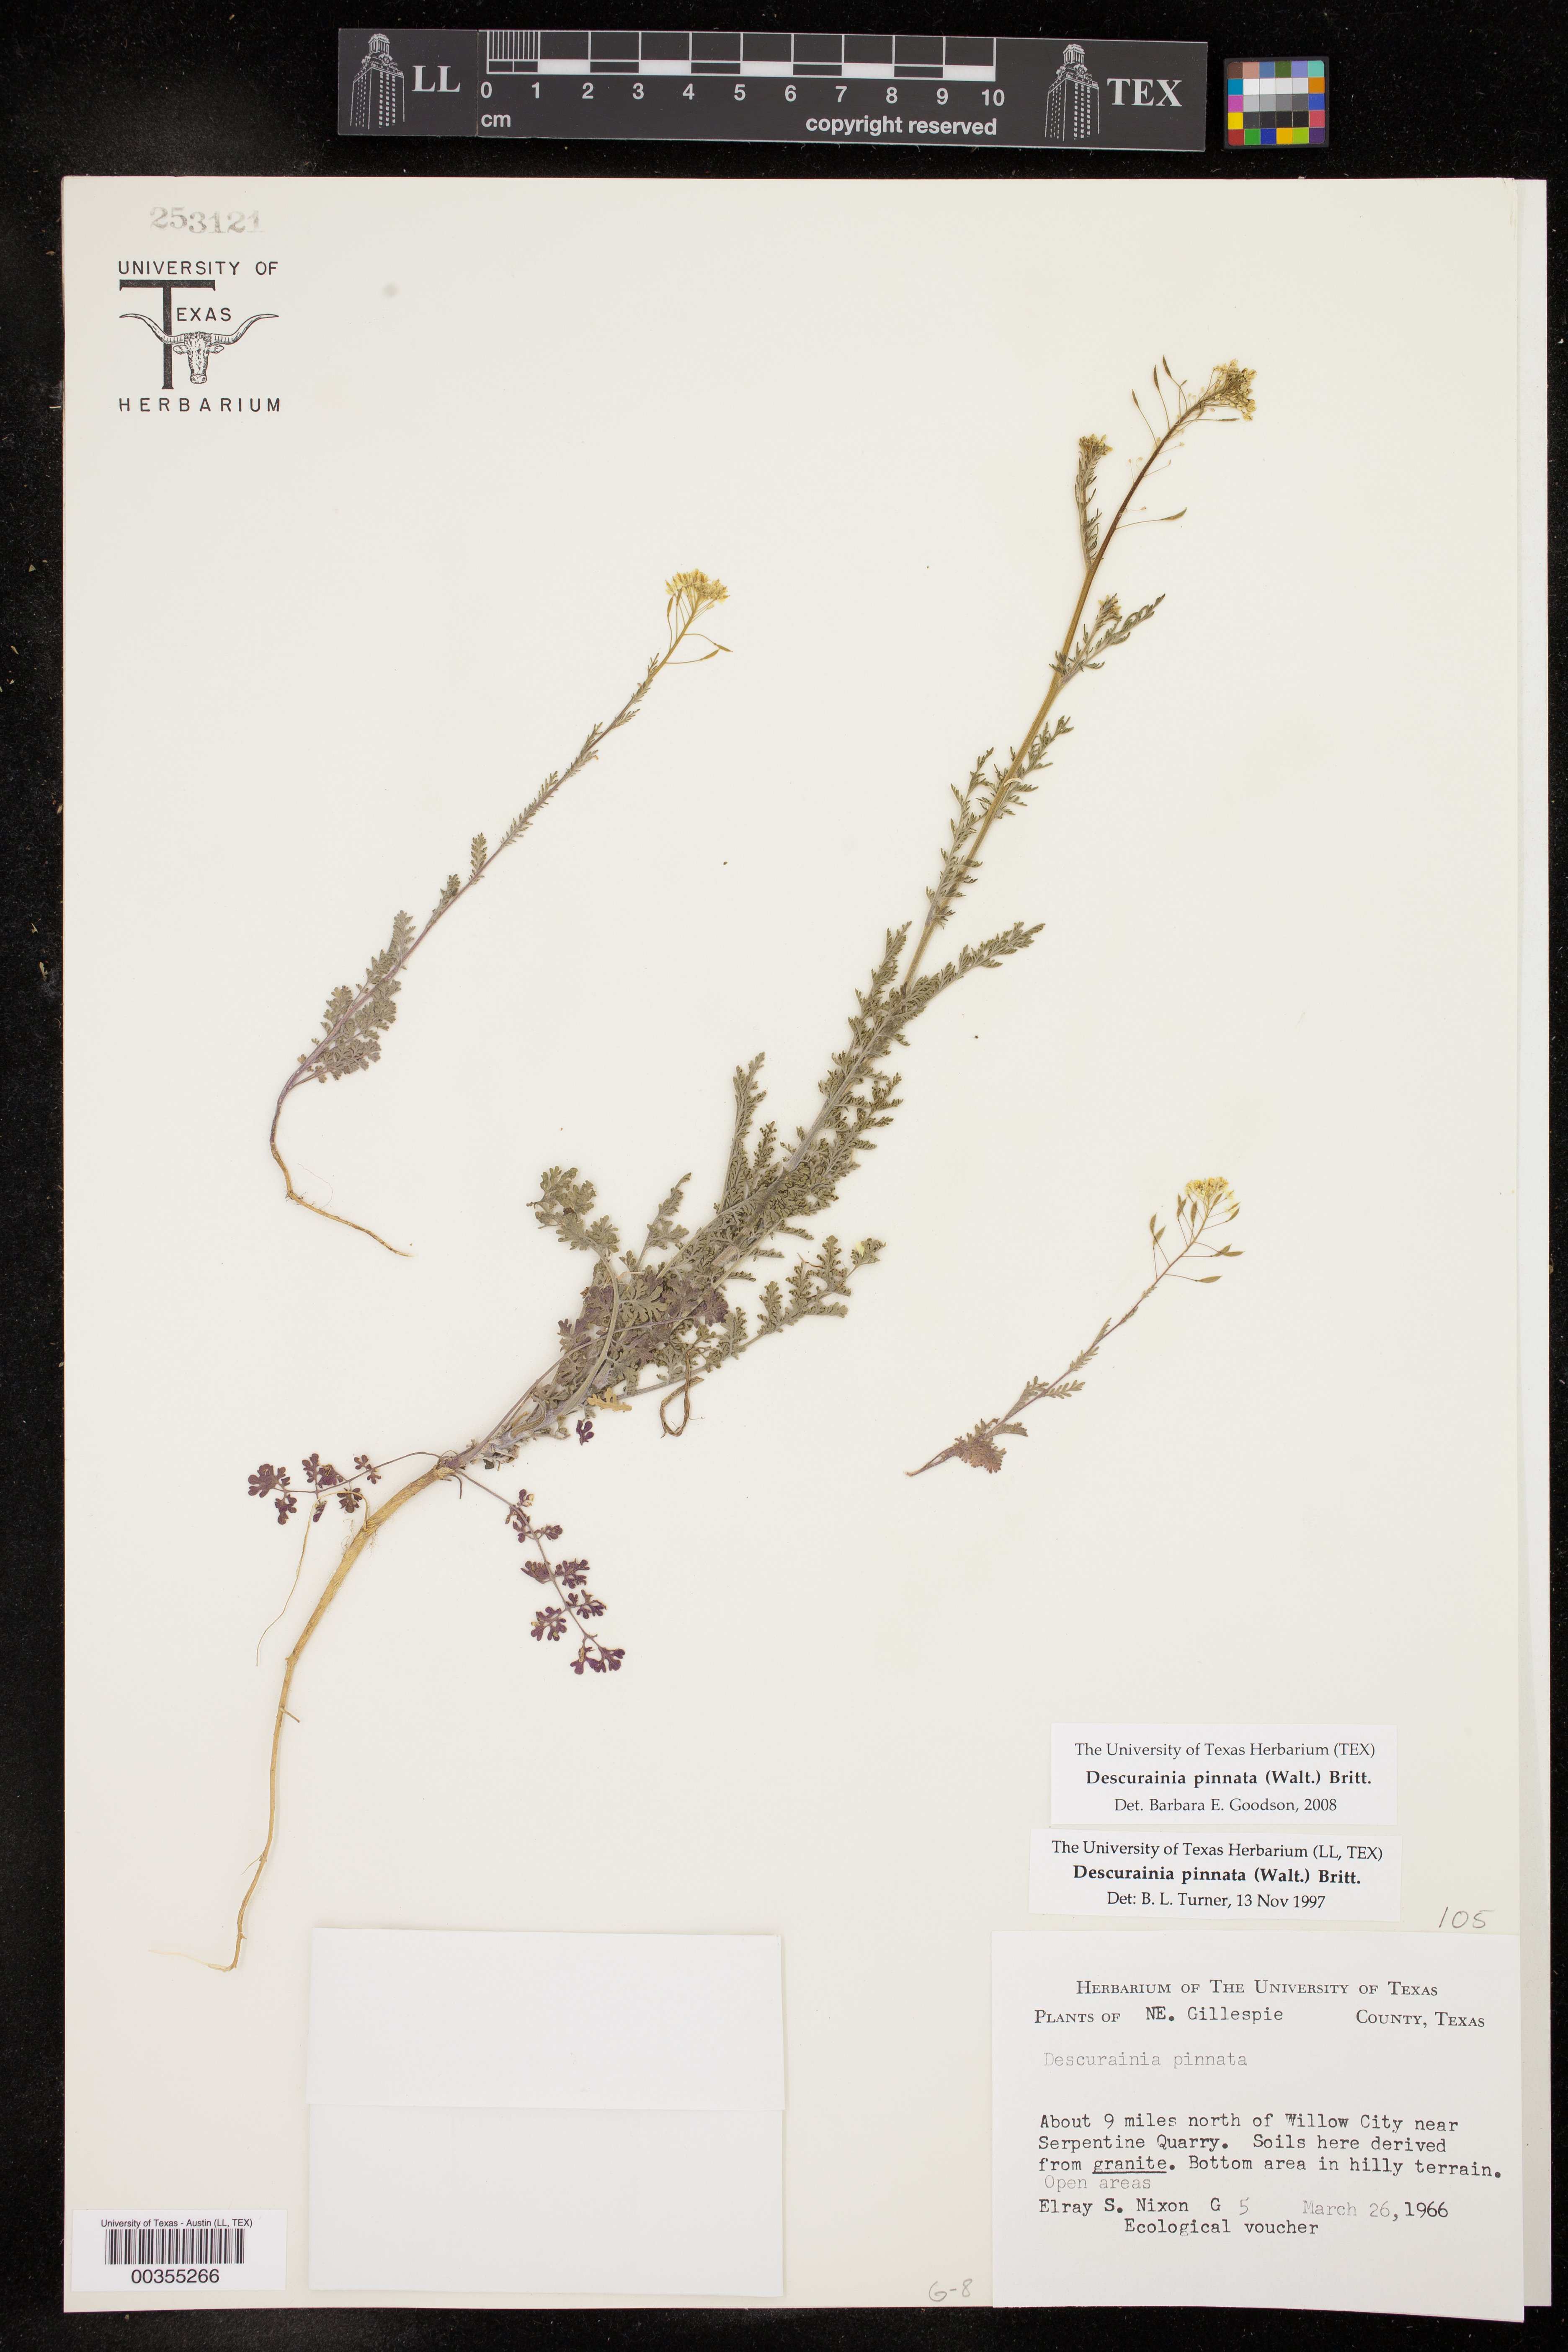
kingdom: Plantae
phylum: Tracheophyta
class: Magnoliopsida
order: Brassicales
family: Brassicaceae
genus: Descurainia
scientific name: Descurainia pinnata
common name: Western tansy mustard
